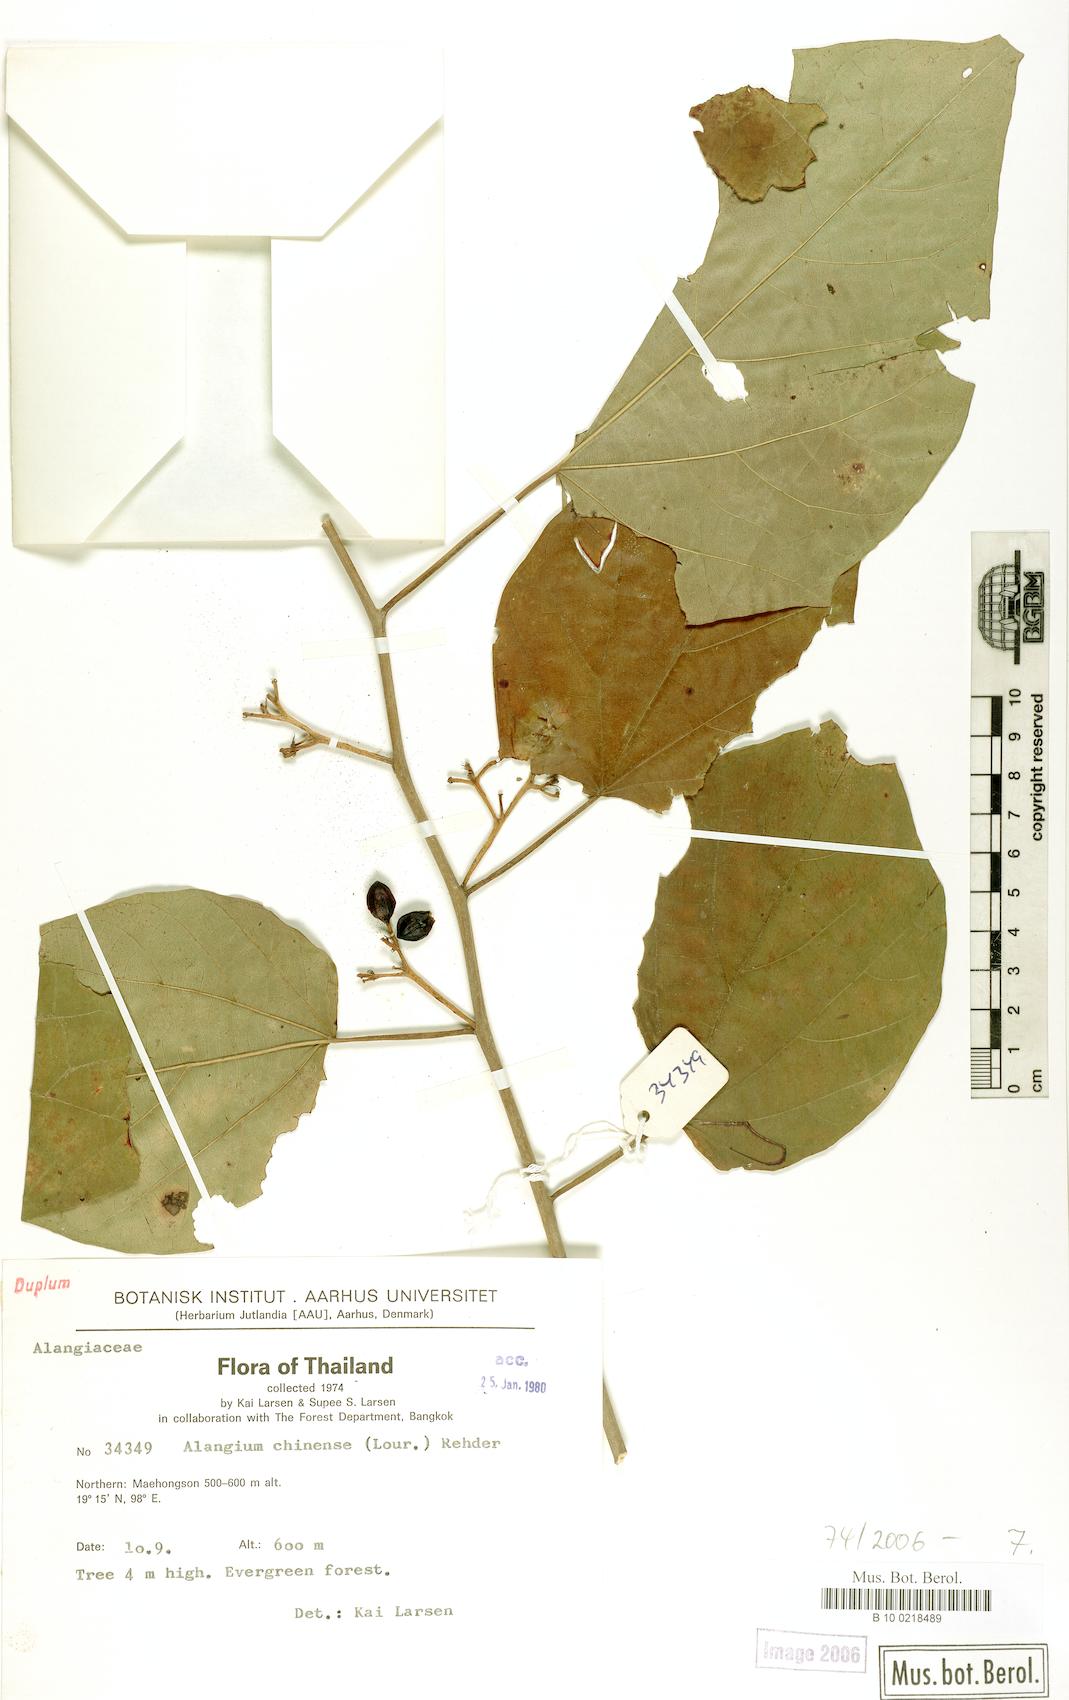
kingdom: Plantae
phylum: Tracheophyta
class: Magnoliopsida
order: Cornales
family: Cornaceae
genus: Alangium
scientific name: Alangium chinense
